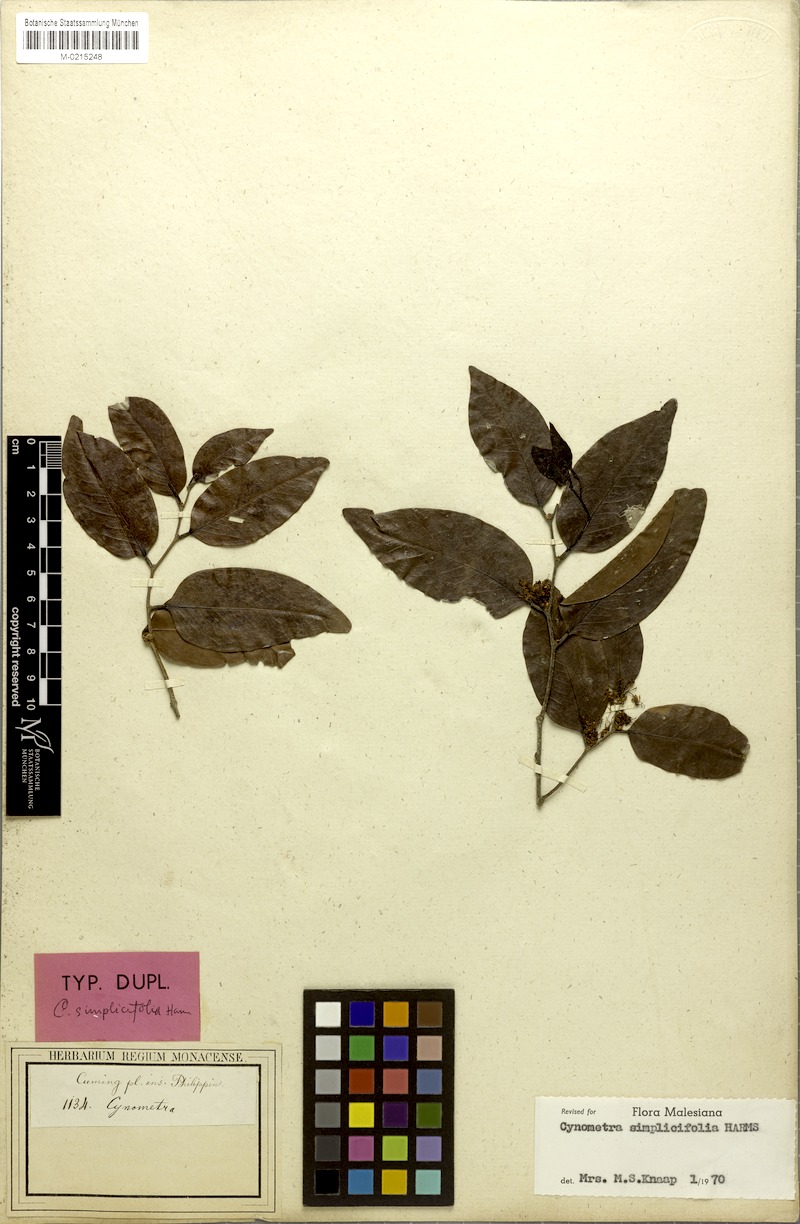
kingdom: Plantae
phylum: Tracheophyta
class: Magnoliopsida
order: Fabales
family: Fabaceae
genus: Cynometra
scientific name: Cynometra simplicifolia
